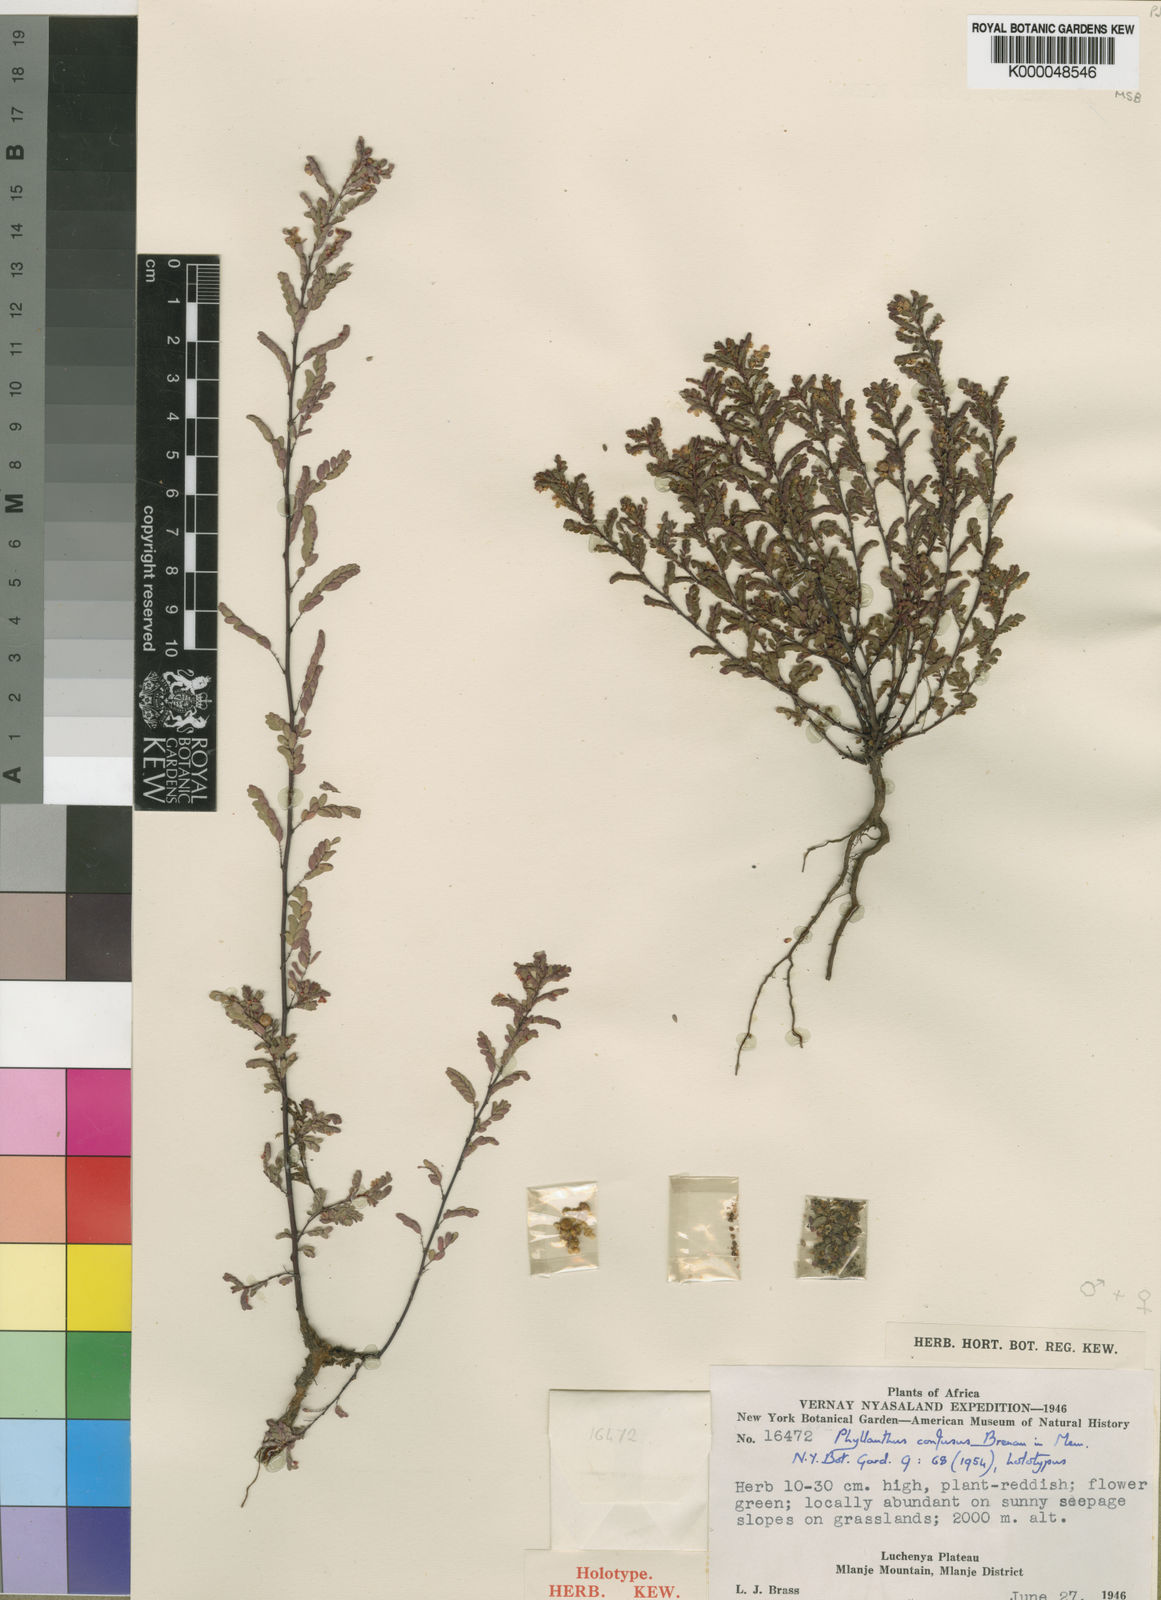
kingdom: Plantae
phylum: Tracheophyta
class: Magnoliopsida
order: Malpighiales
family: Phyllanthaceae
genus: Phyllanthus
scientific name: Phyllanthus confusus
